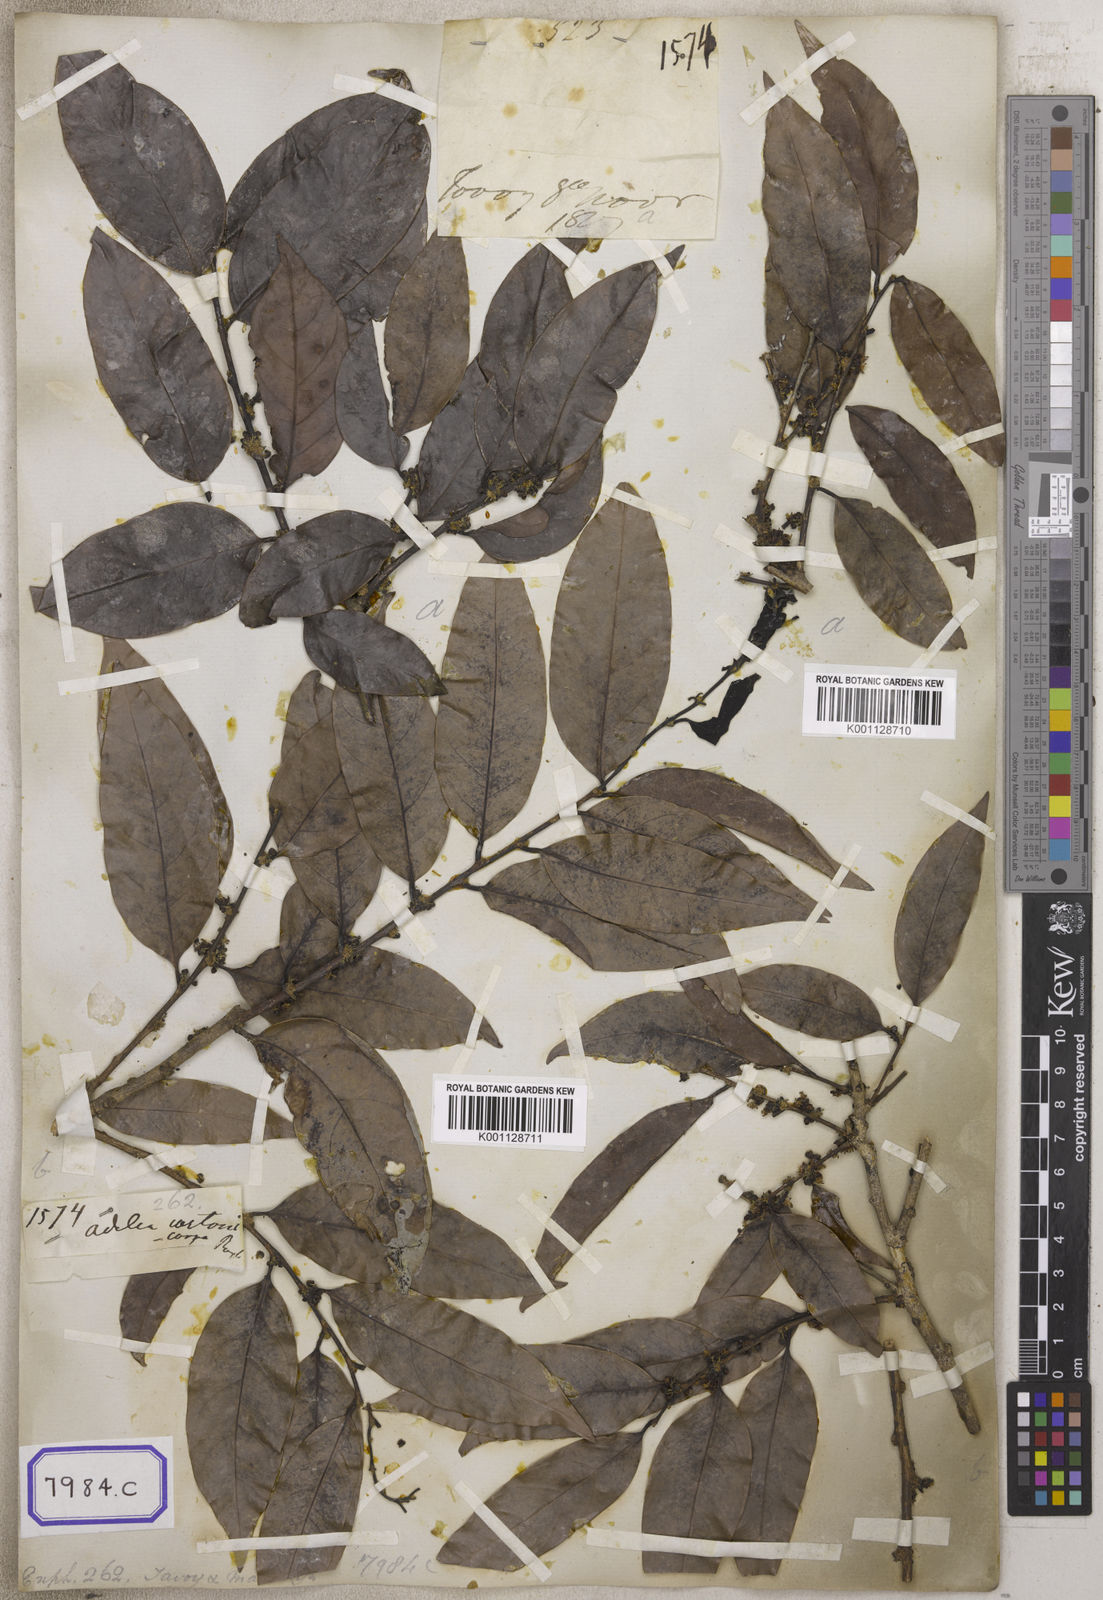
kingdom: Plantae
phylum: Tracheophyta
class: Magnoliopsida
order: Malpighiales
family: Euphorbiaceae
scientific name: Euphorbiaceae
